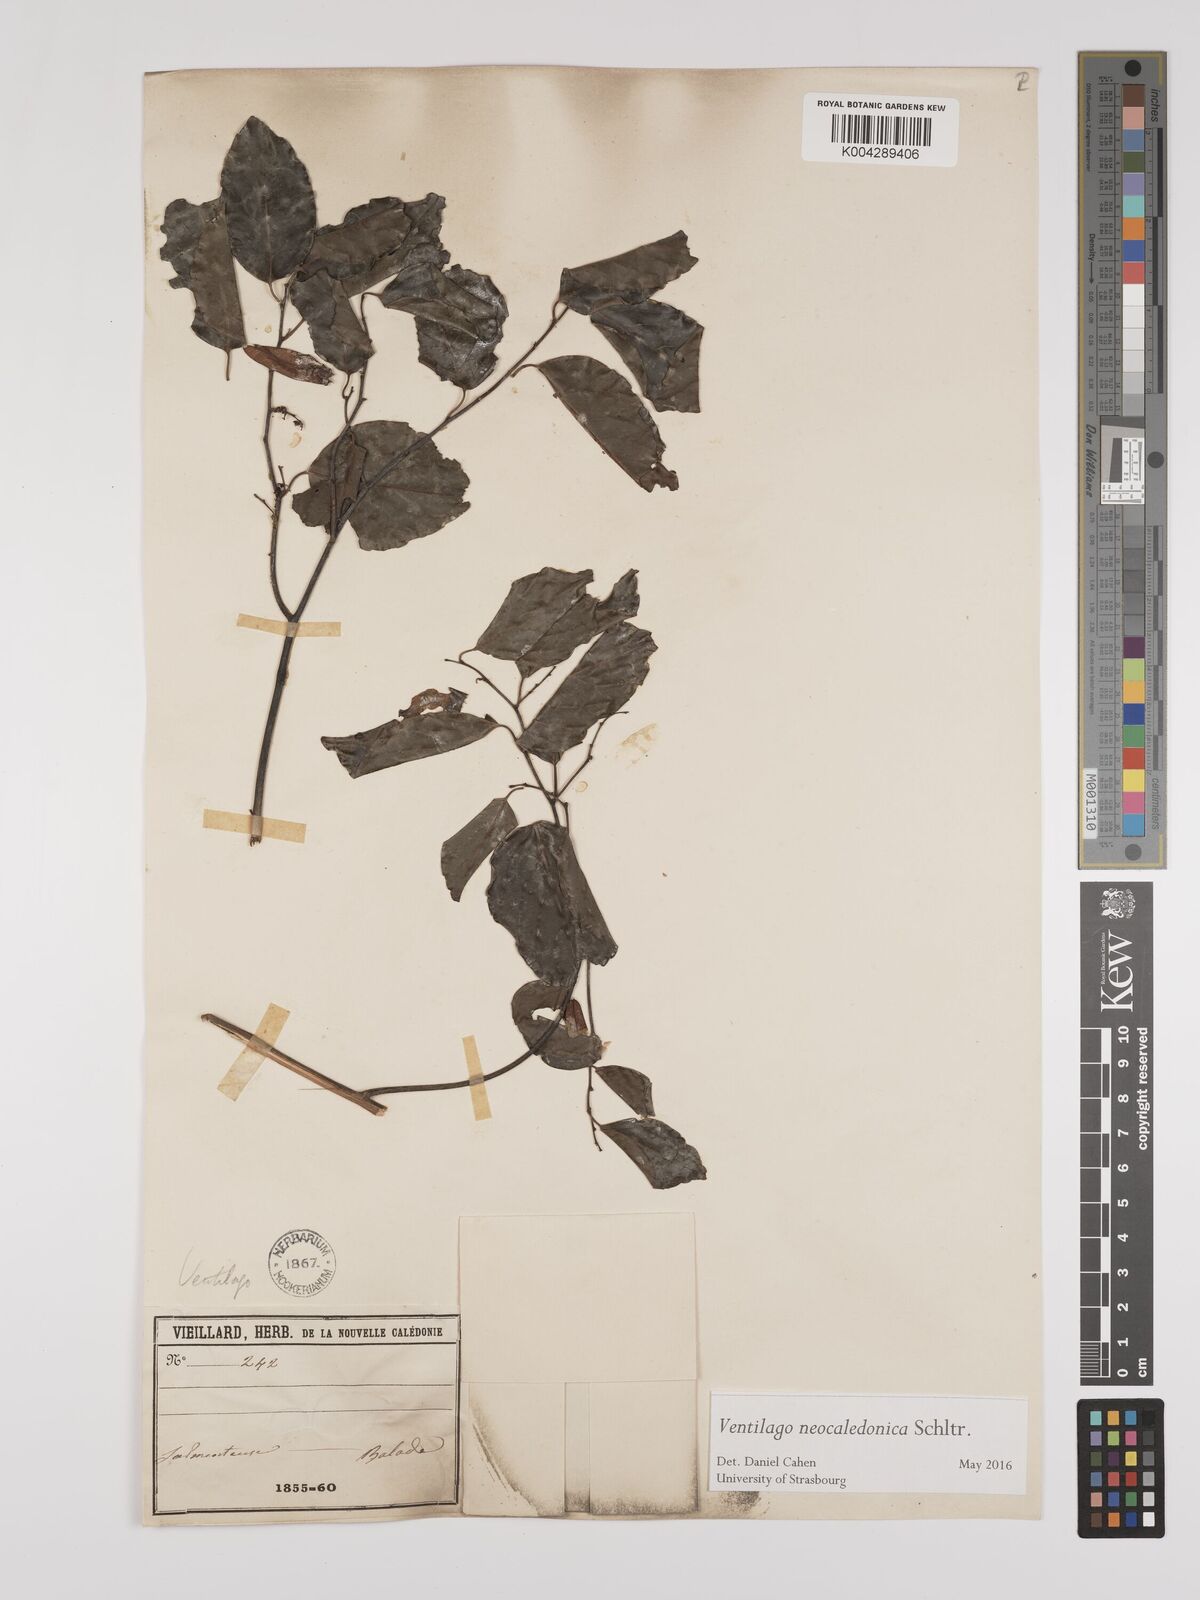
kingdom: Plantae
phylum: Tracheophyta
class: Magnoliopsida
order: Rosales
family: Rhamnaceae
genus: Ventilago
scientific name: Ventilago neocaledonica
